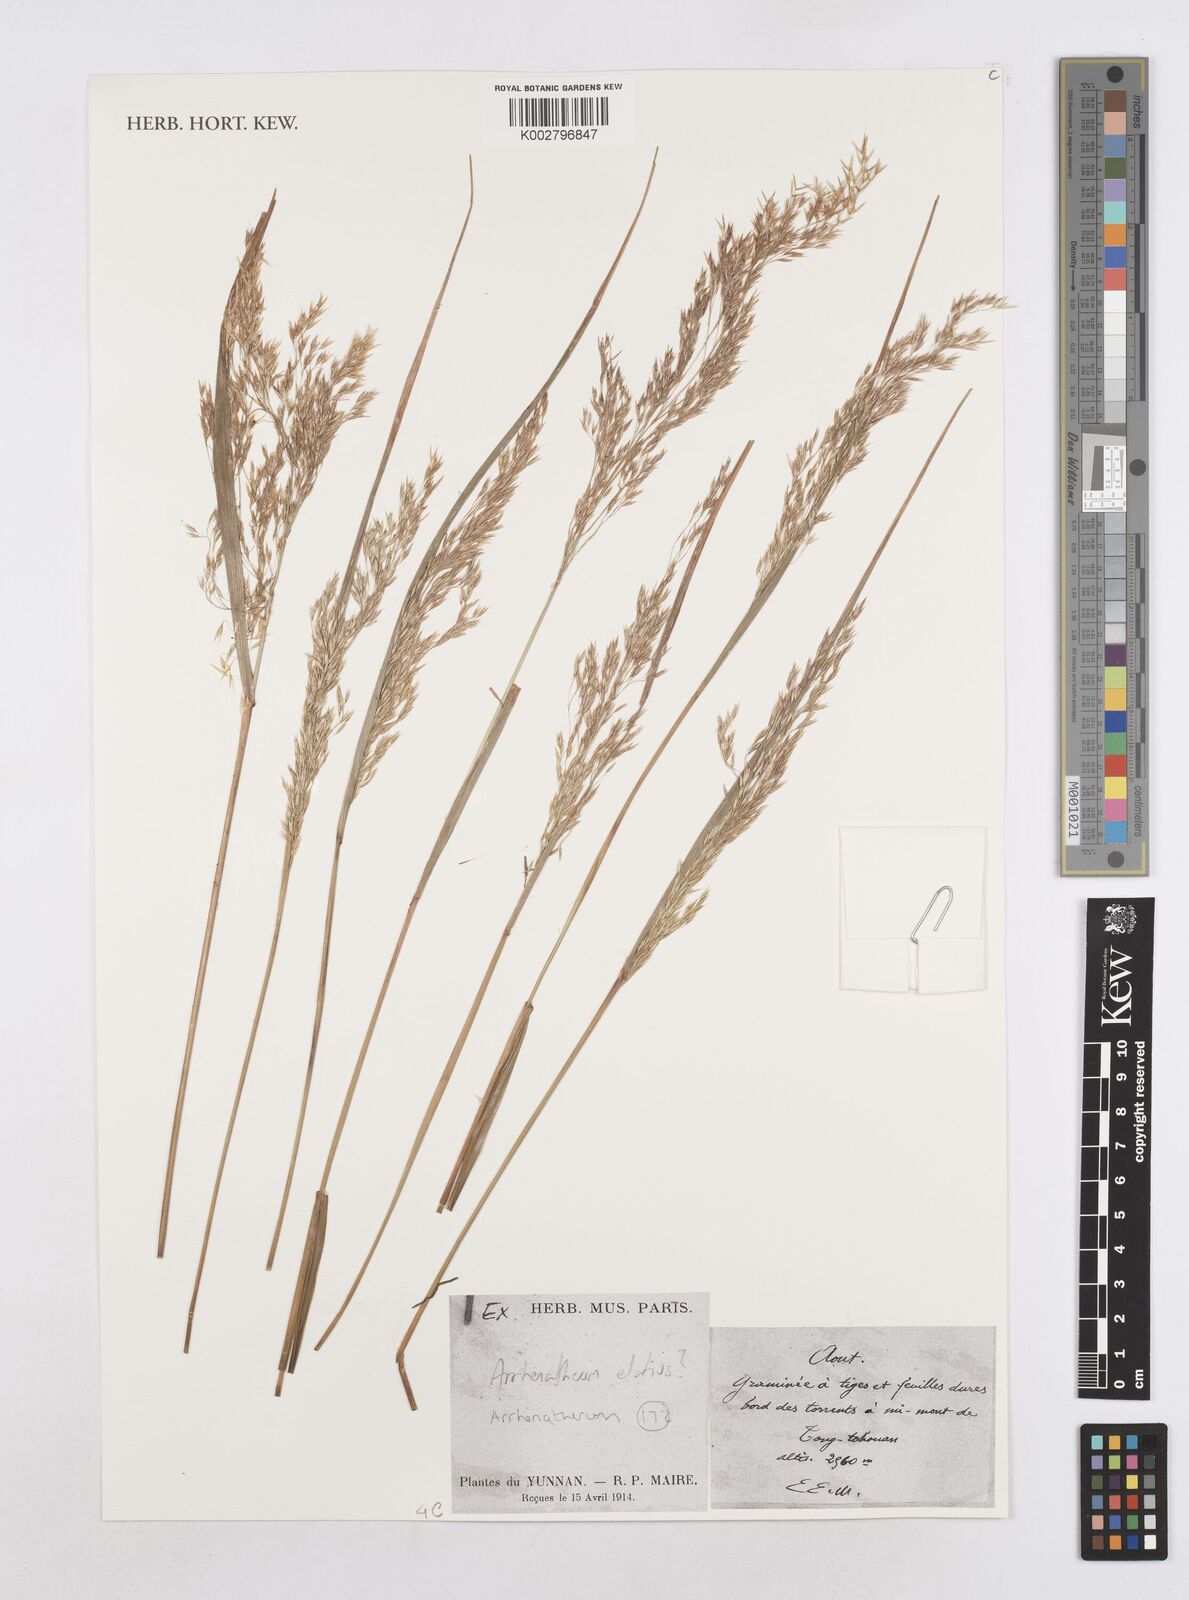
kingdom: Plantae
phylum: Tracheophyta
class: Liliopsida
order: Poales
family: Poaceae
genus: Arrhenatherum
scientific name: Arrhenatherum elatius
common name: Tall oatgrass
